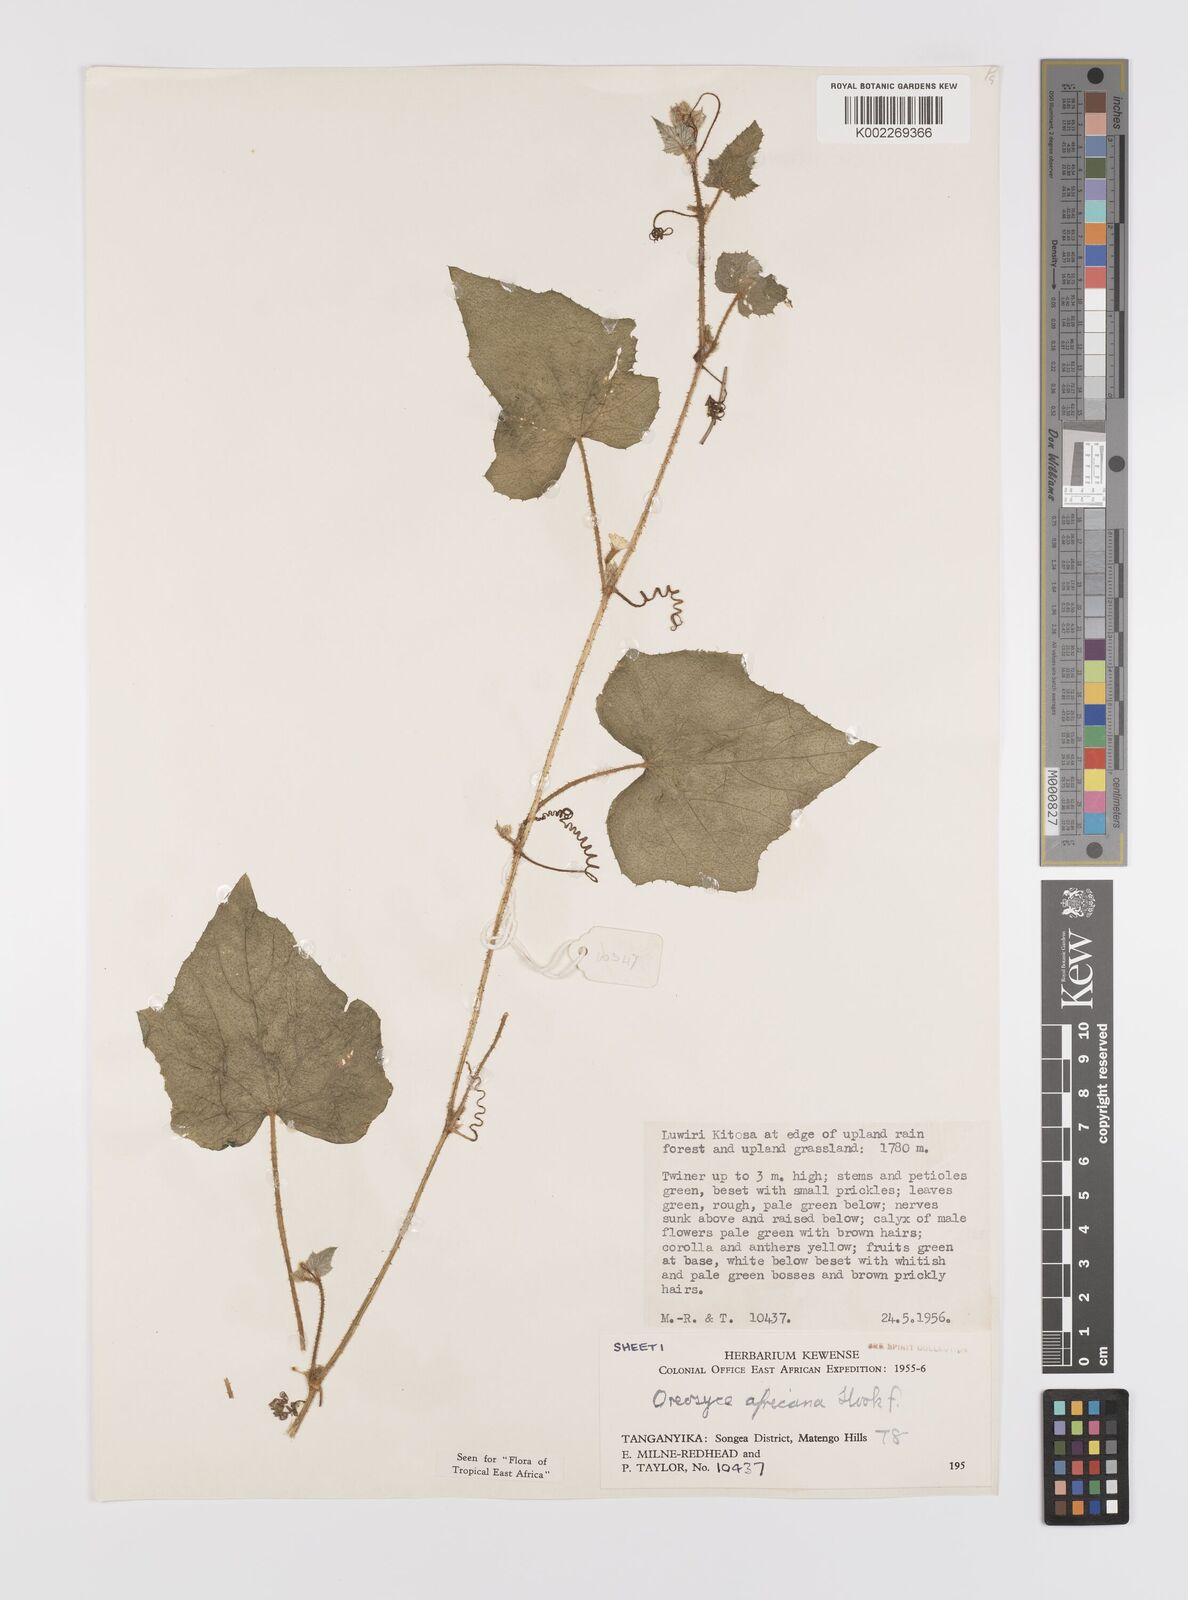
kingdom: Plantae
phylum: Tracheophyta
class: Magnoliopsida
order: Cucurbitales
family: Cucurbitaceae
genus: Cucumis
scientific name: Cucumis oreosyce
